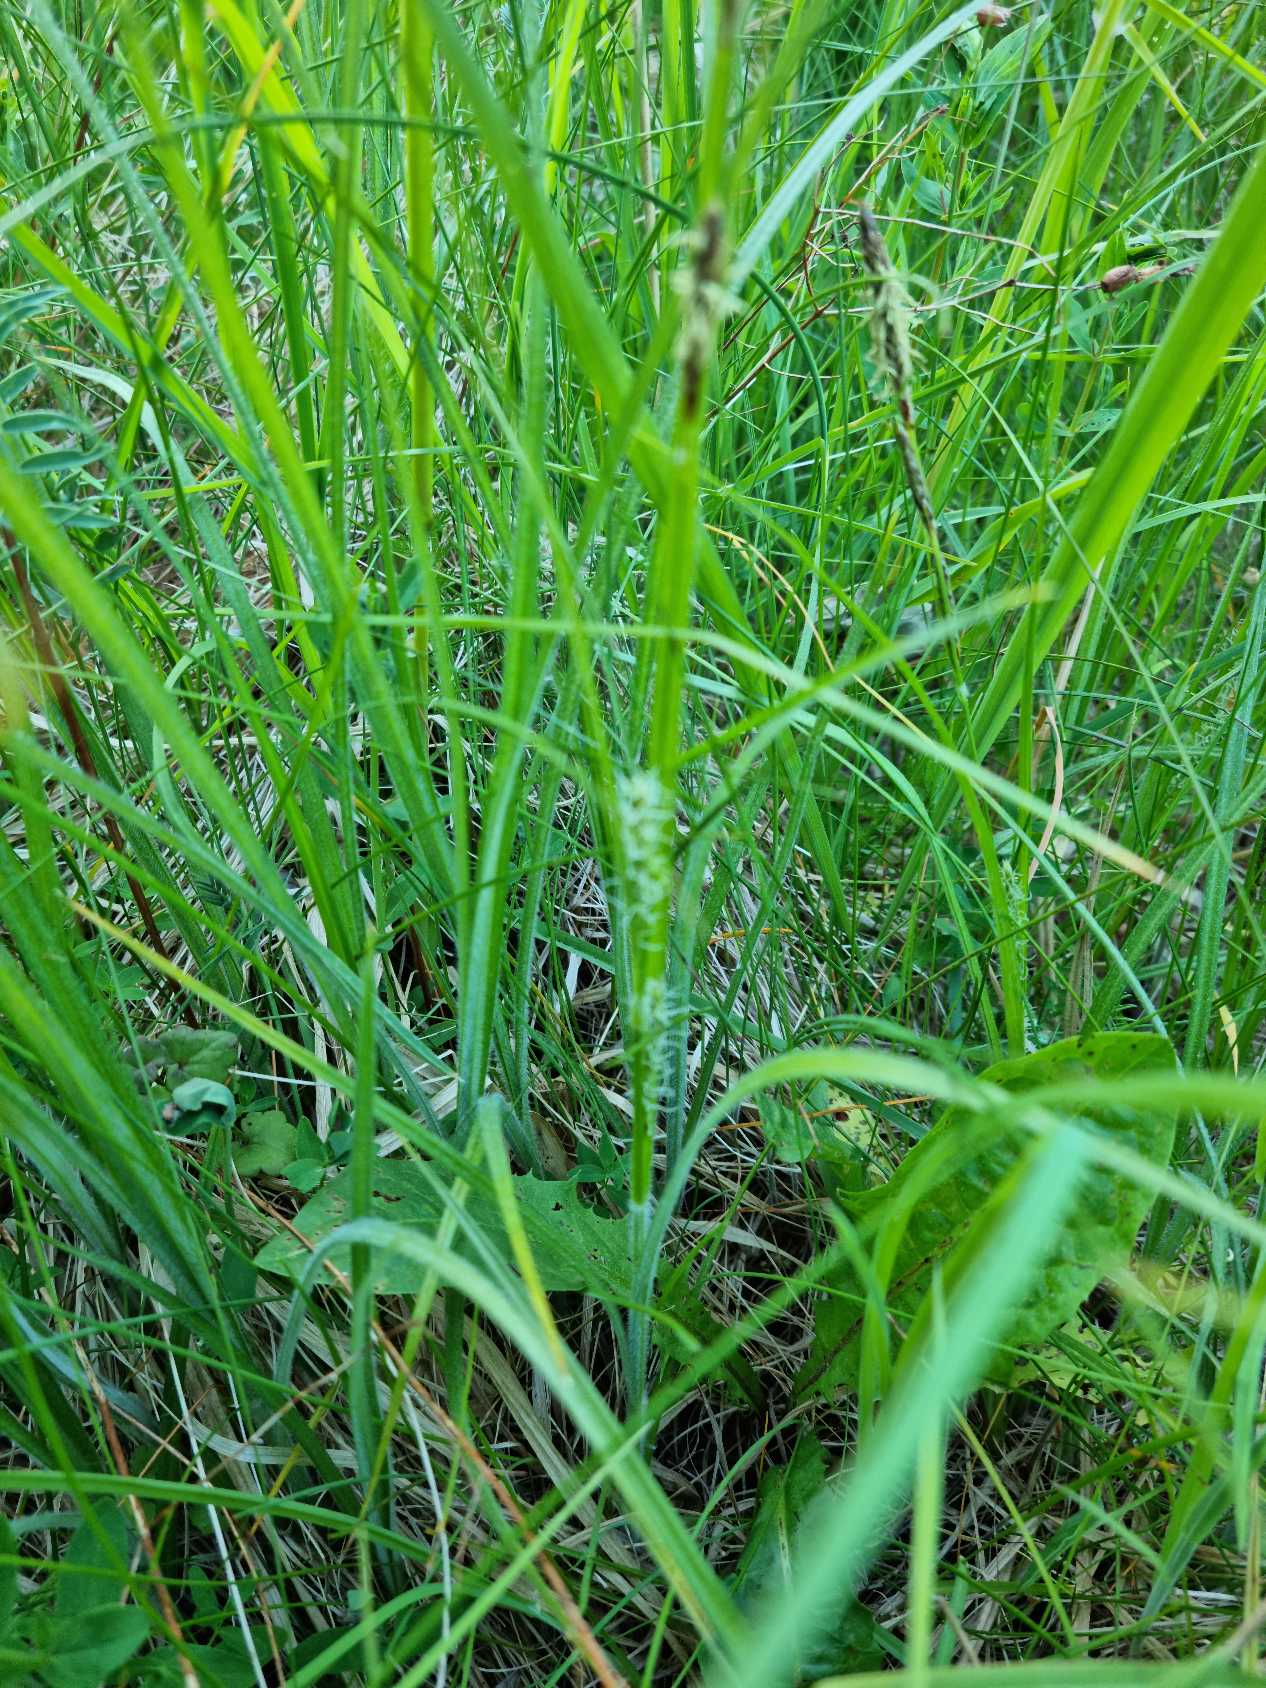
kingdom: Plantae
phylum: Tracheophyta
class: Liliopsida
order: Poales
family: Cyperaceae
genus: Carex
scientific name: Carex hirta
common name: Håret star
